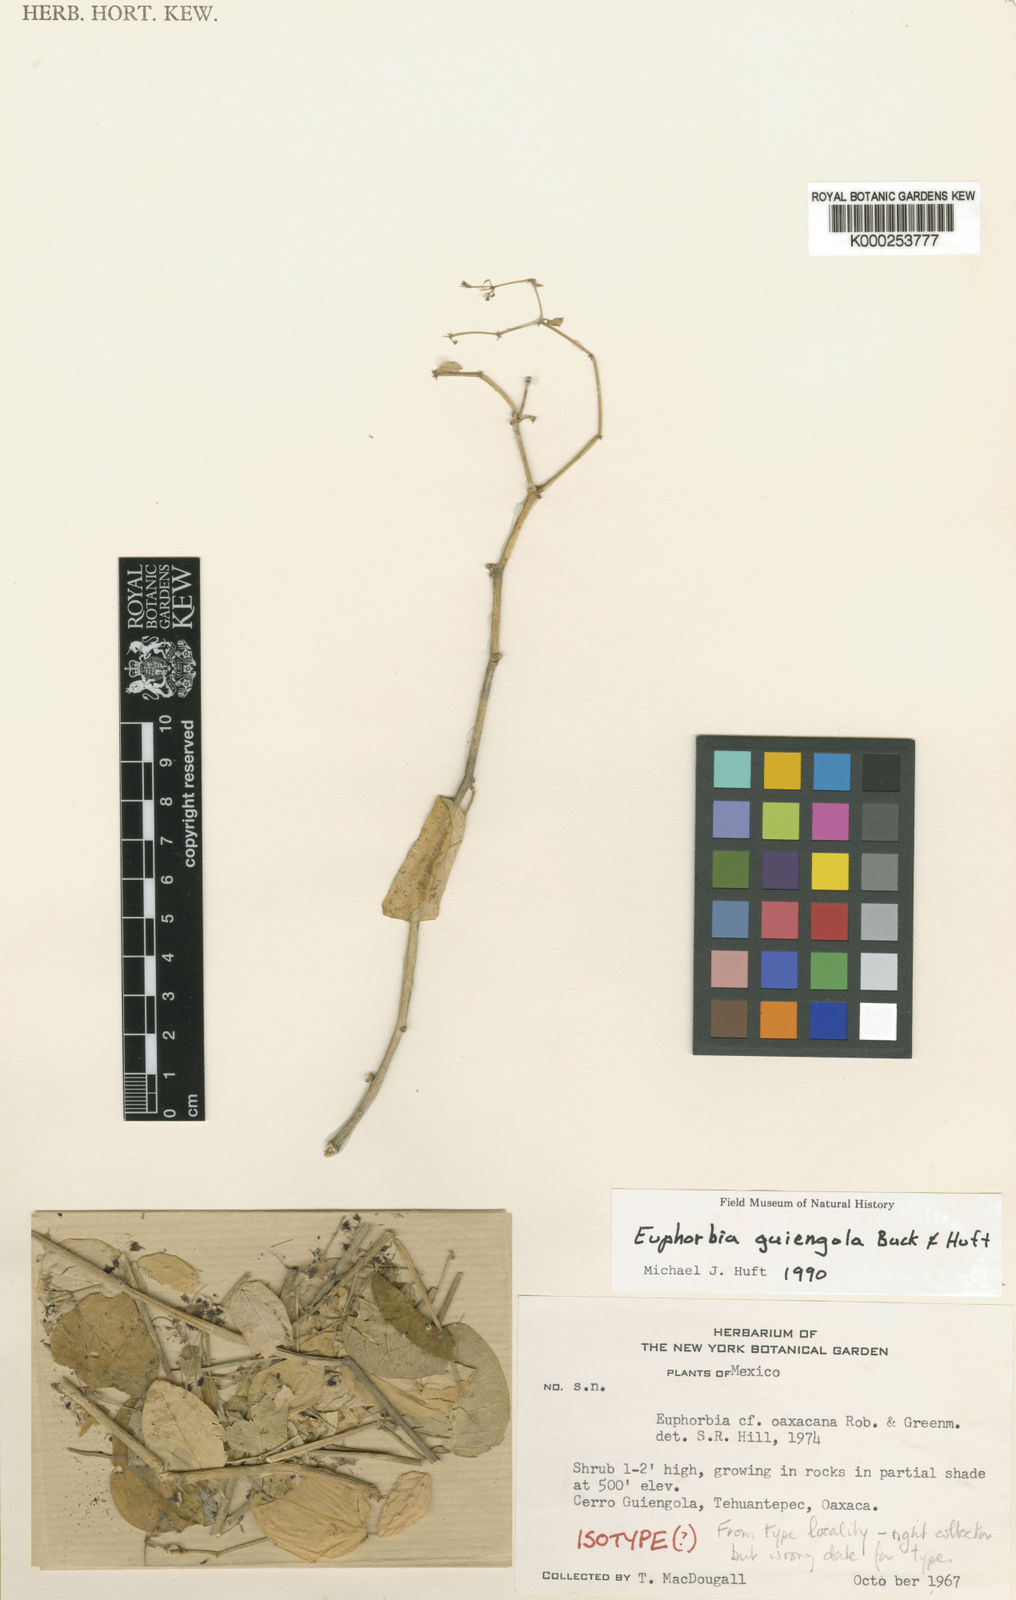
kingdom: Plantae
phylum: Tracheophyta
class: Magnoliopsida
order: Malpighiales
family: Euphorbiaceae
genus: Euphorbia
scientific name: Euphorbia guiengola
